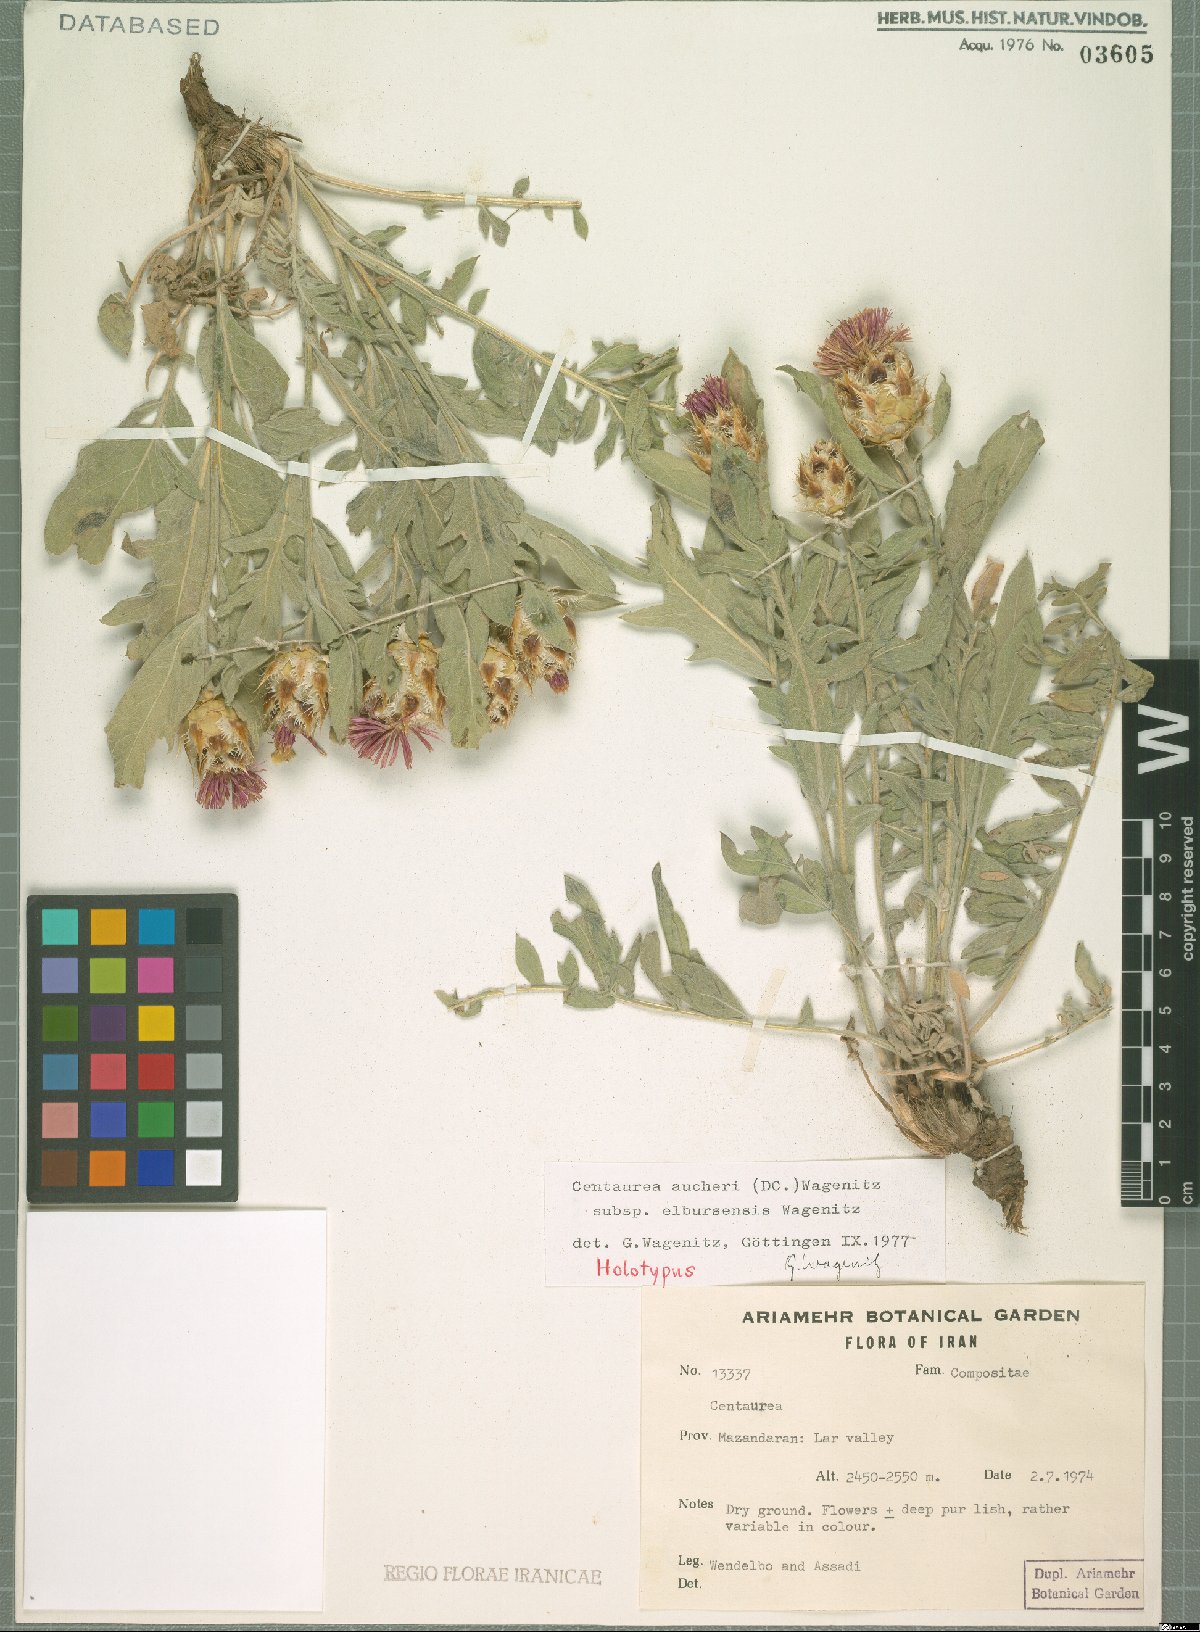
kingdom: Plantae
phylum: Tracheophyta
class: Magnoliopsida
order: Asterales
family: Asteraceae
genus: Centaurea
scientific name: Centaurea assadii
